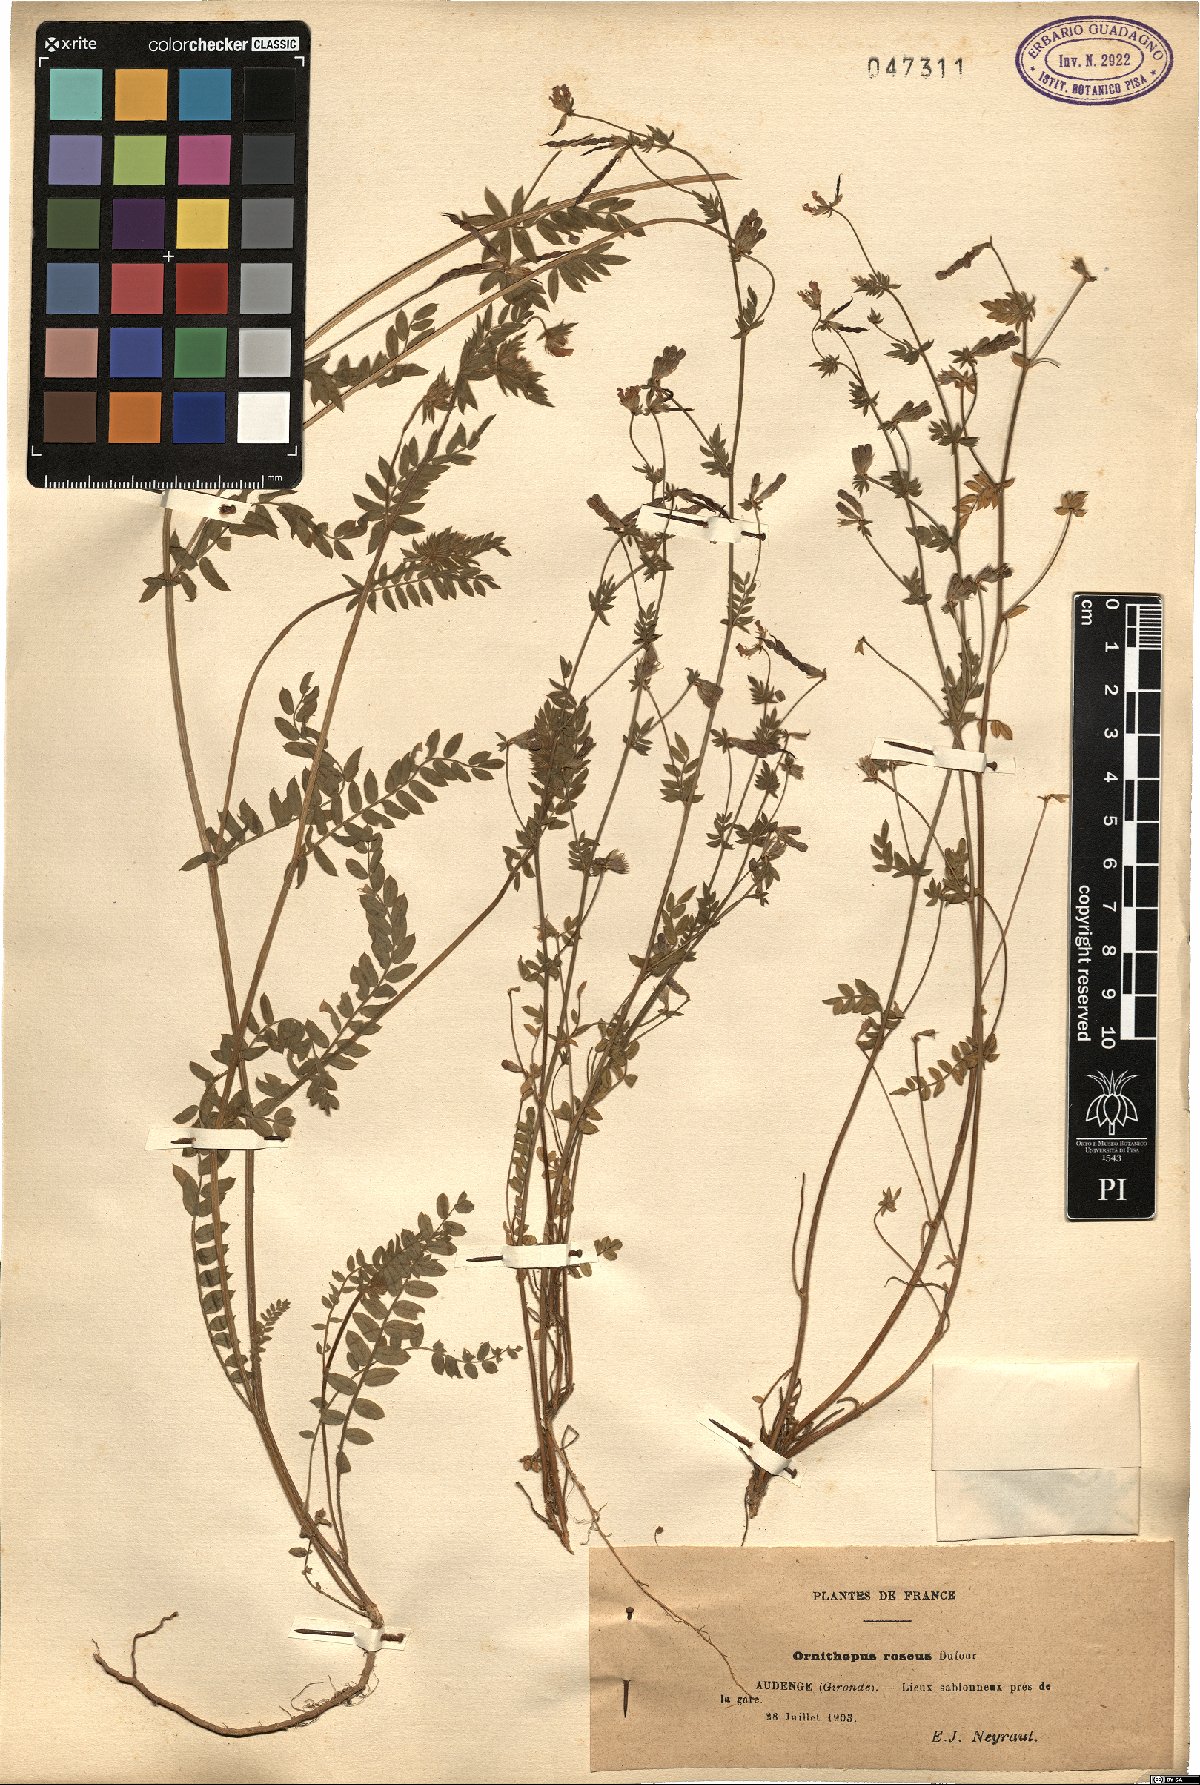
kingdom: Plantae
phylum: Tracheophyta
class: Magnoliopsida
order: Fabales
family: Fabaceae
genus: Ornithopus
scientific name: Ornithopus sativus
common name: Serradella
